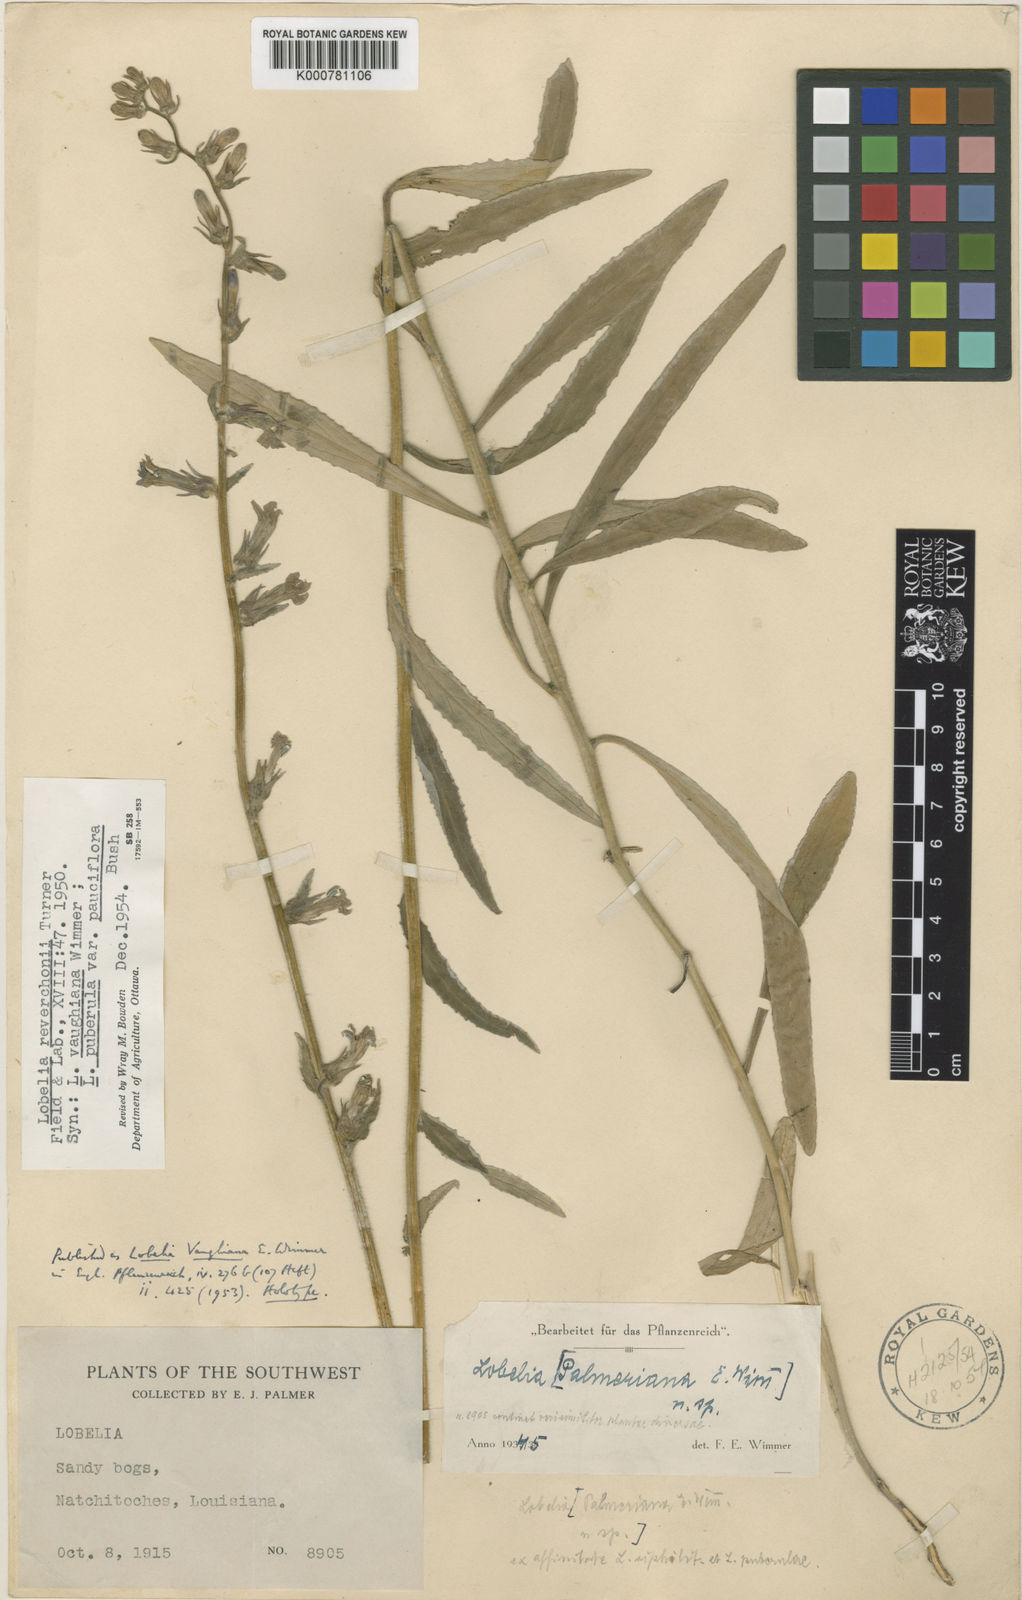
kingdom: Plantae
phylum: Tracheophyta
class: Magnoliopsida
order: Asterales
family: Campanulaceae
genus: Lobelia
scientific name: Lobelia reverchonii
